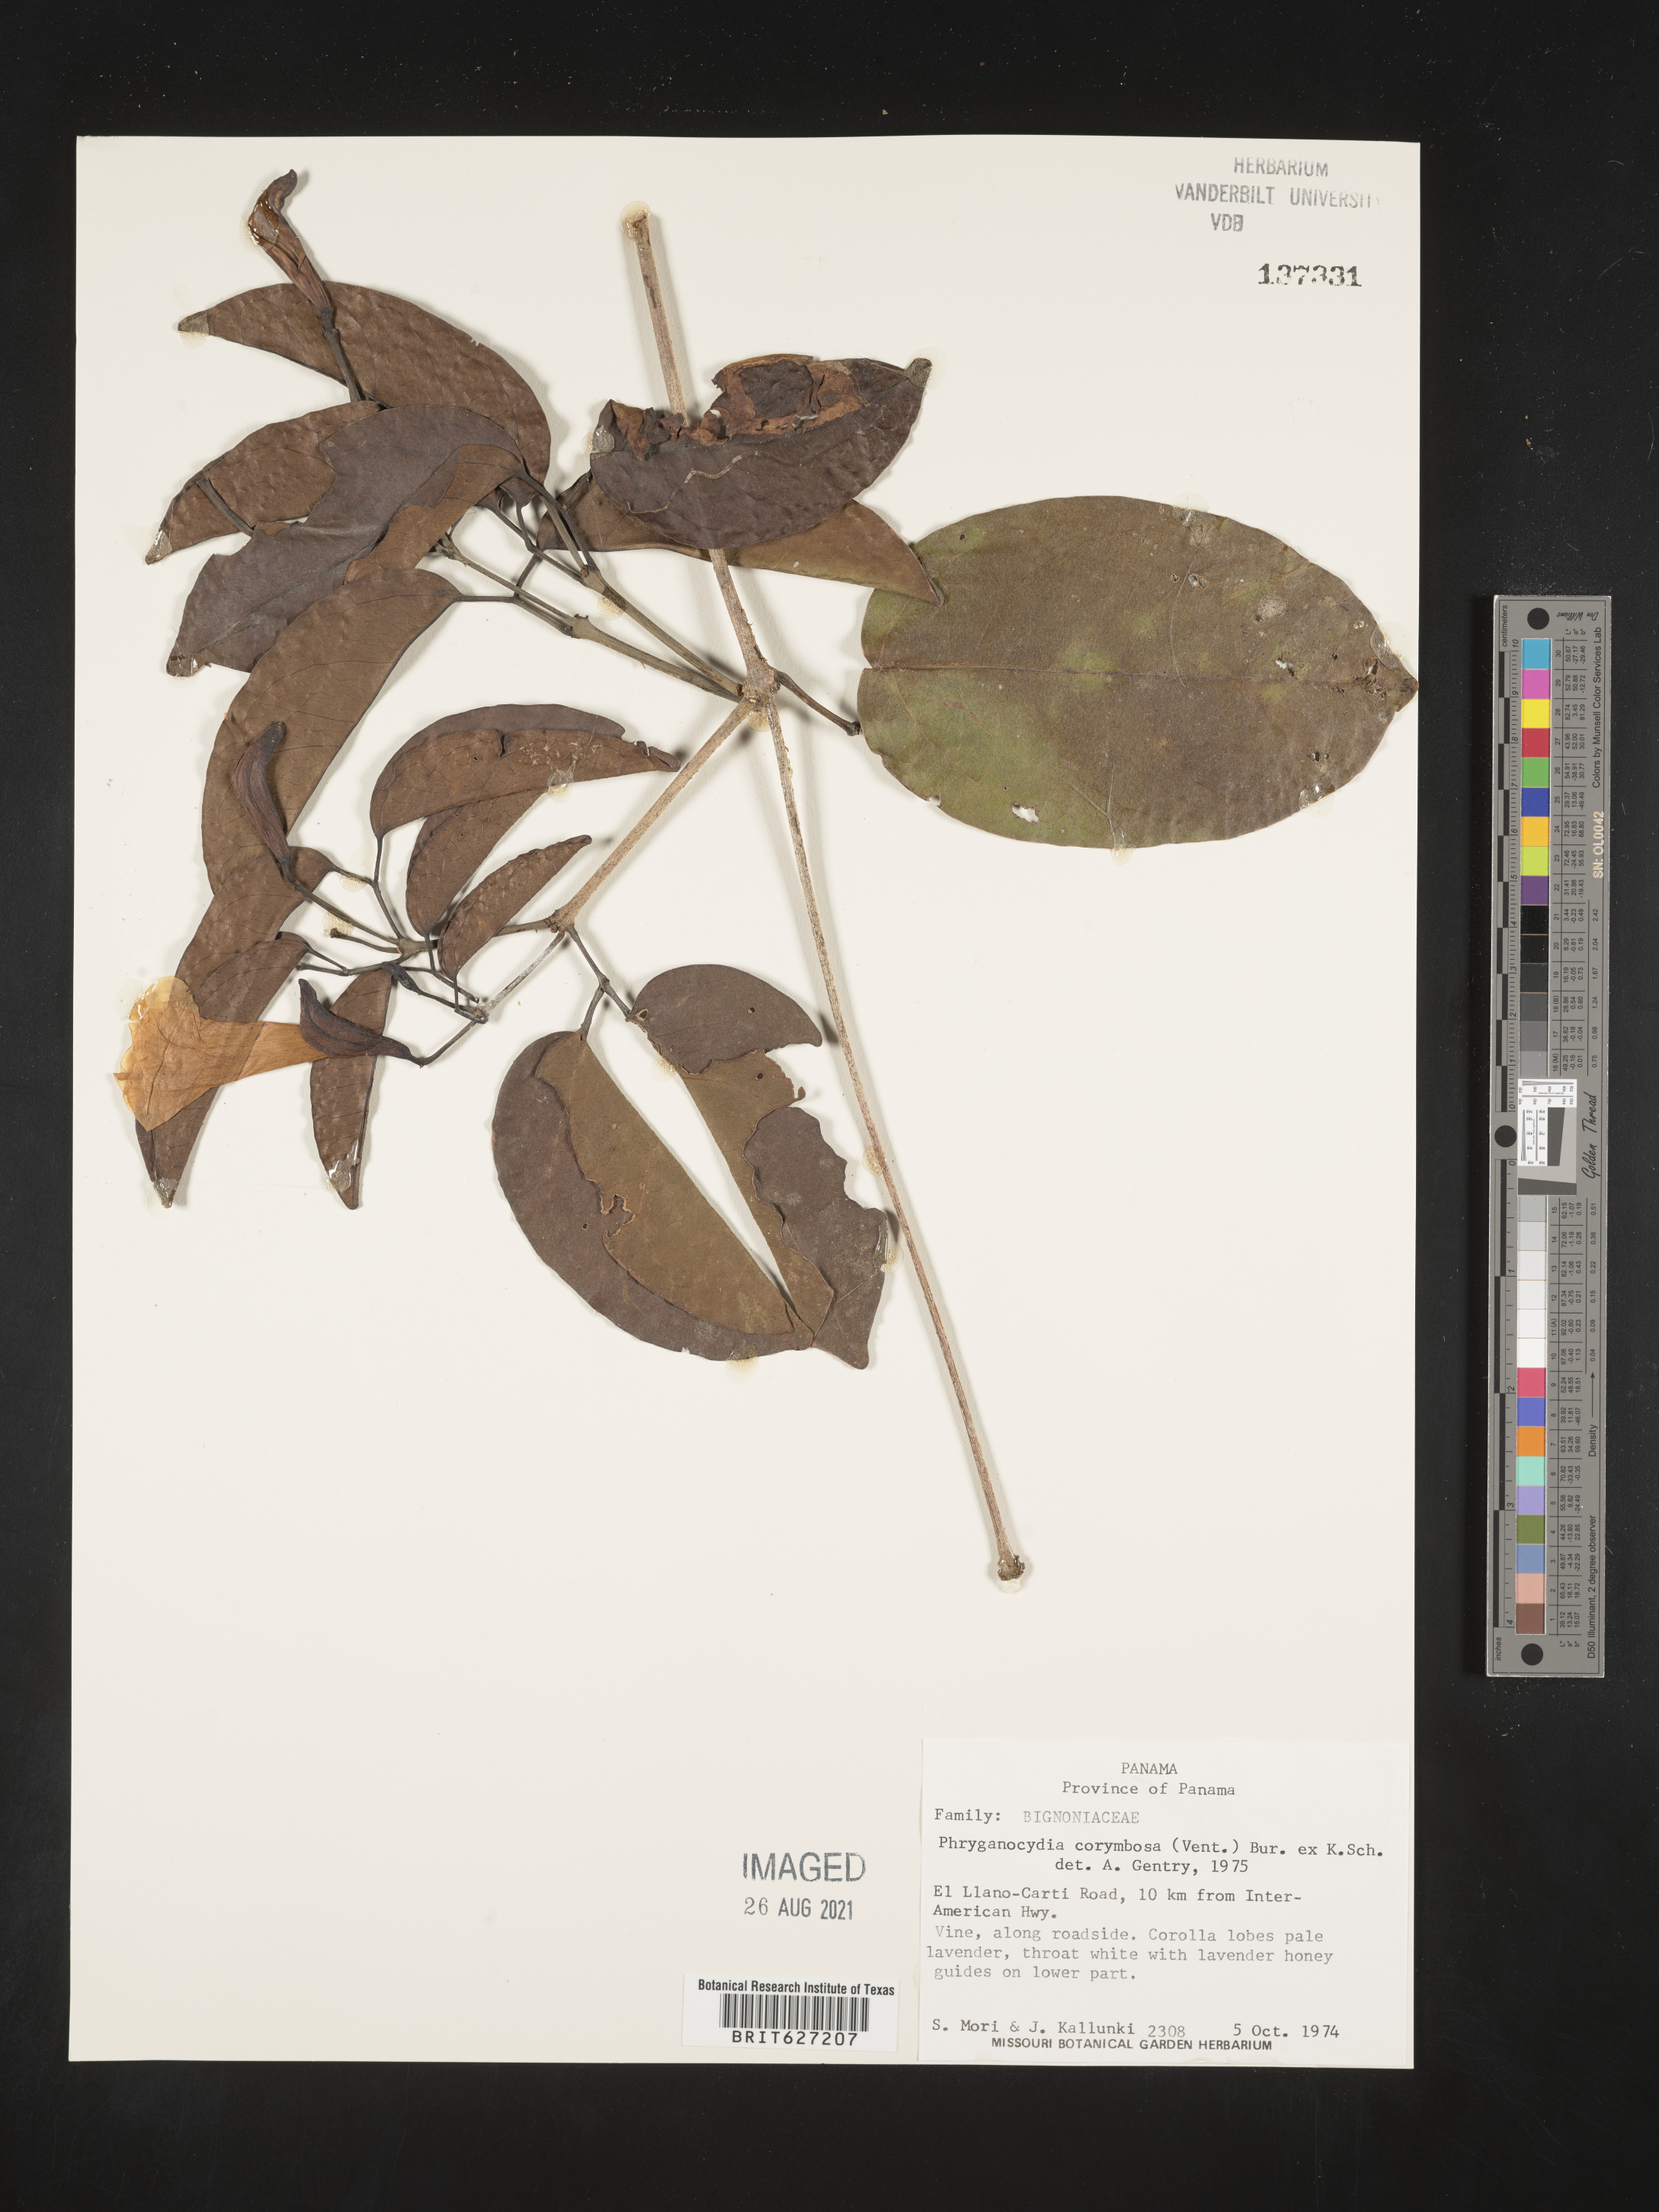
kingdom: Plantae
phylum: Tracheophyta
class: Magnoliopsida
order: Lamiales
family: Bignoniaceae
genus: Bignonia
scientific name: Bignonia corymbosa
